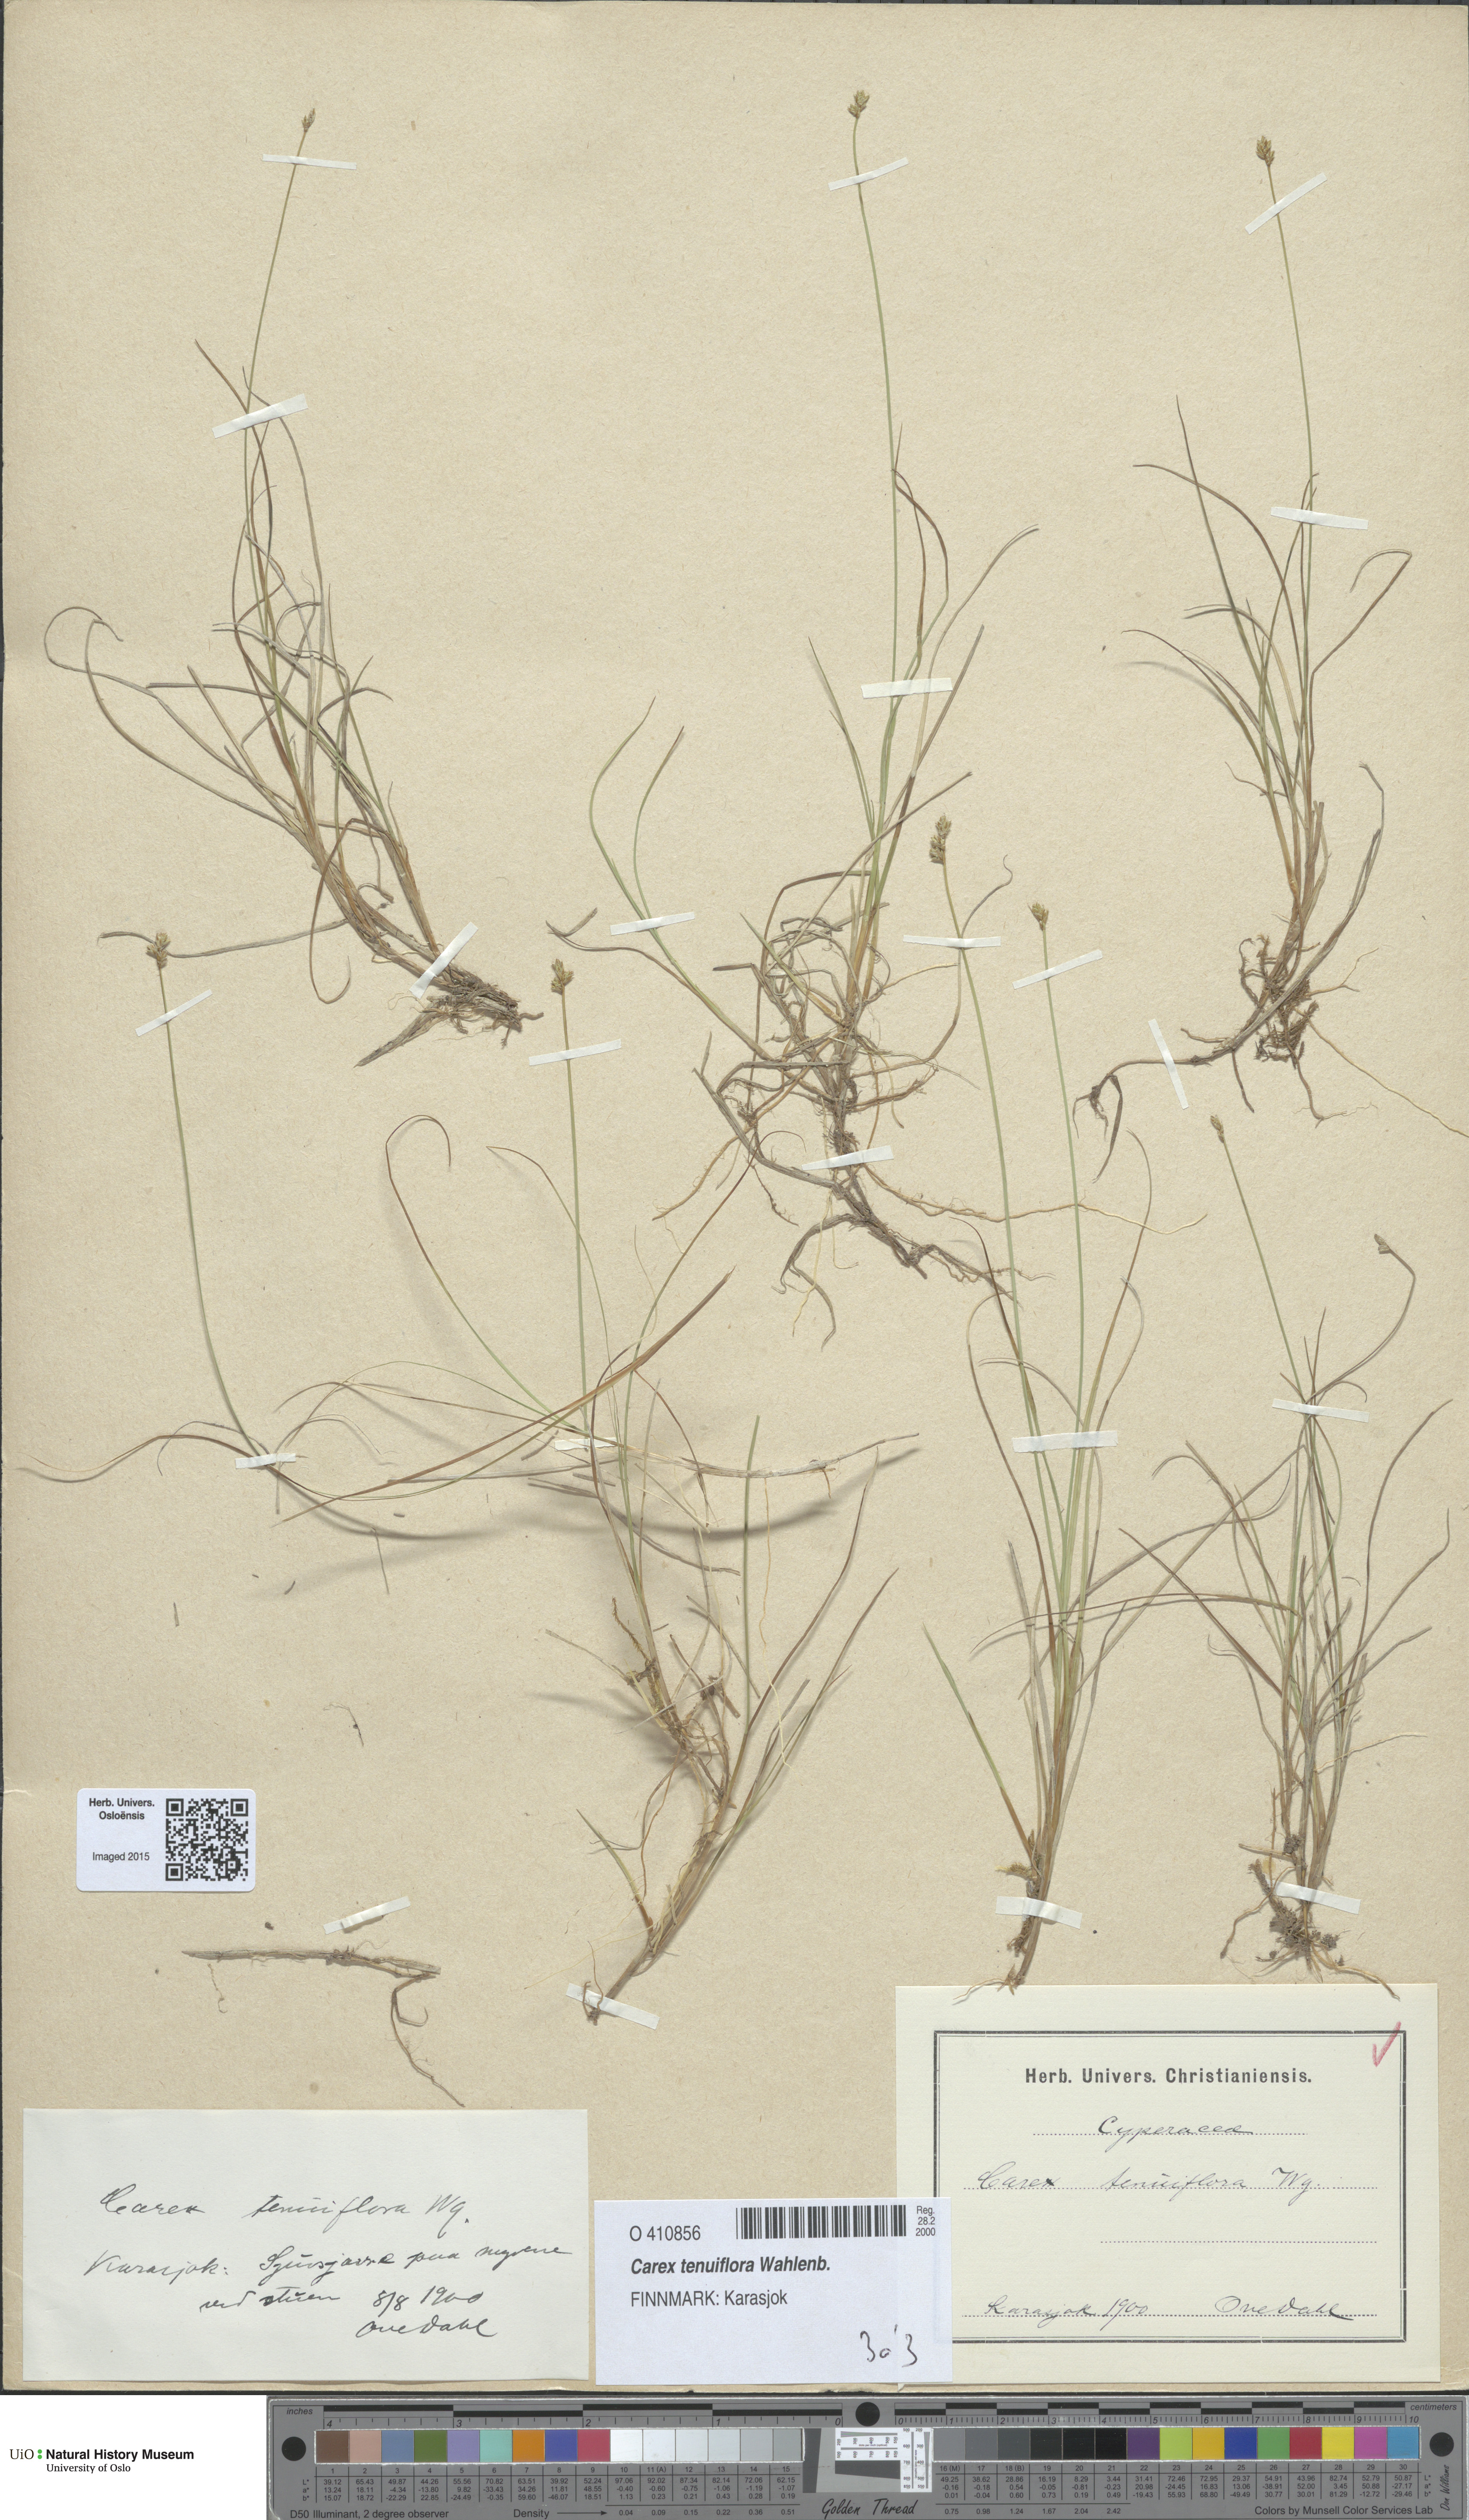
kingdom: Plantae
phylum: Tracheophyta
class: Liliopsida
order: Poales
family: Cyperaceae
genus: Carex
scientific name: Carex tenuiflora
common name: Sparse-flowered sedge
